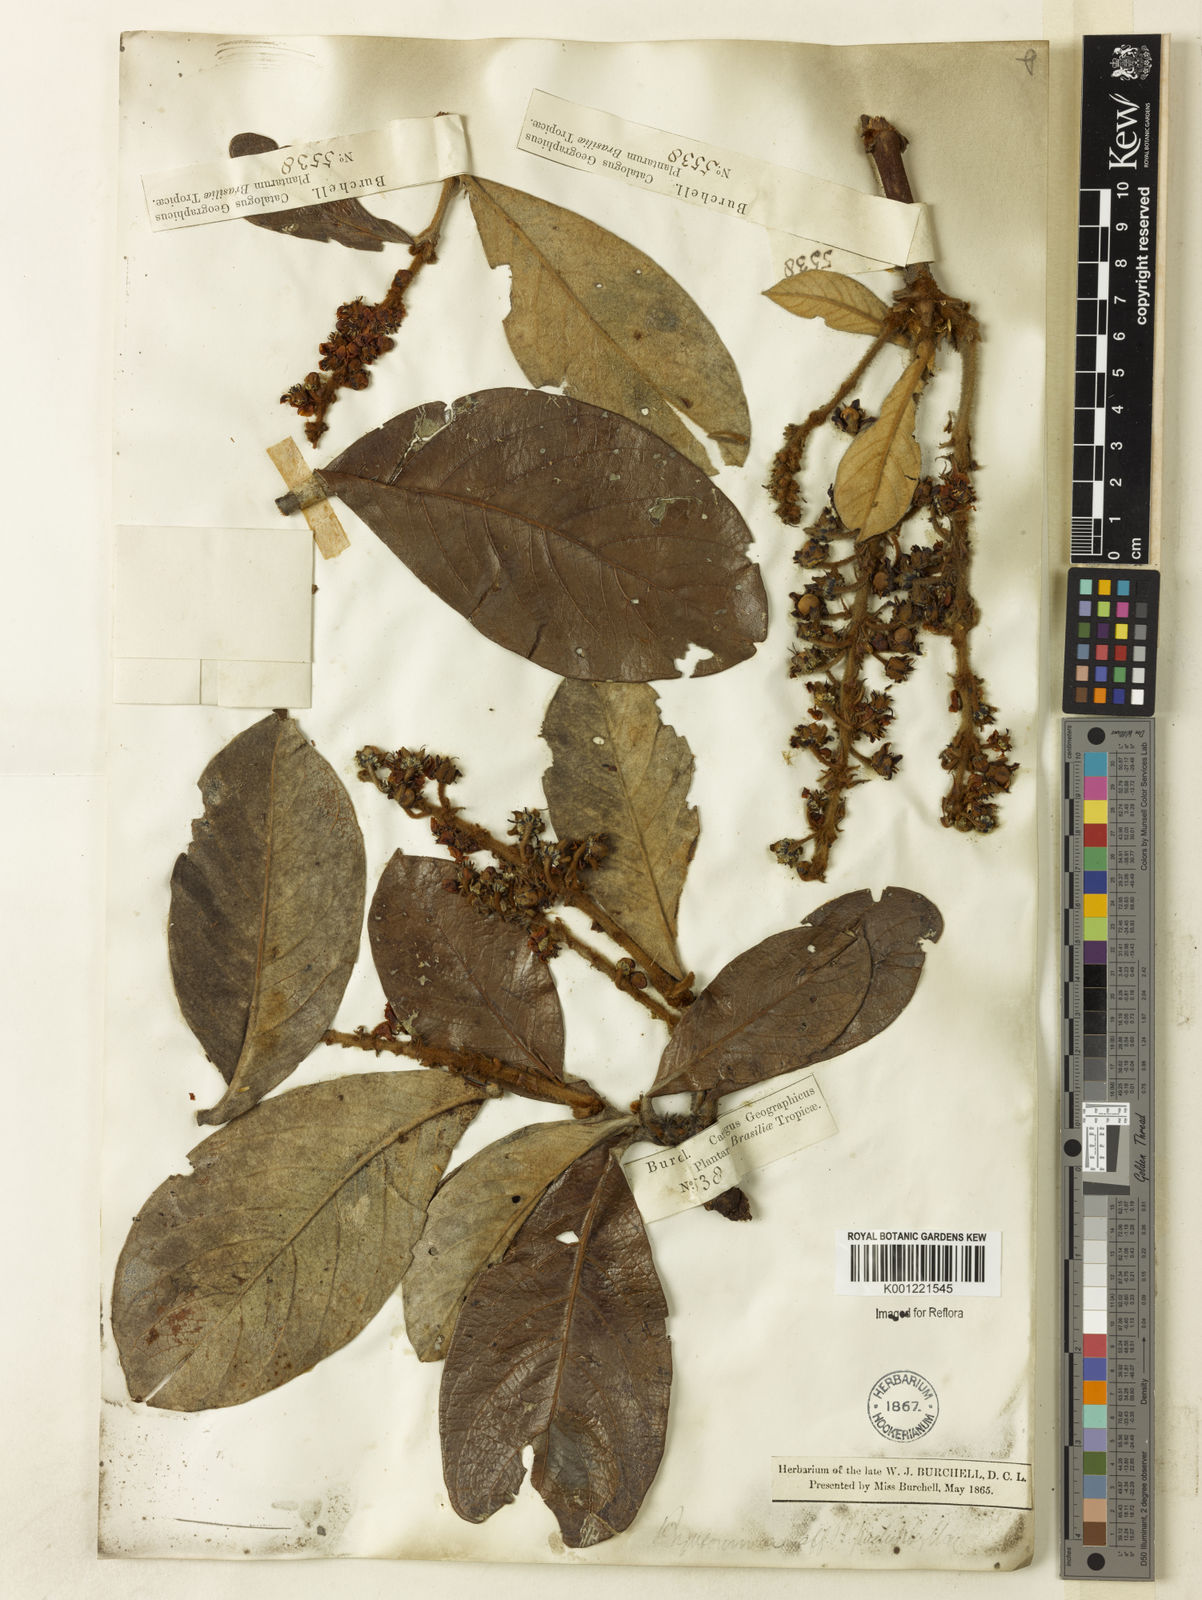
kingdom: Plantae
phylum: Tracheophyta
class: Magnoliopsida
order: Malpighiales
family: Malpighiaceae
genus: Byrsonima
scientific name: Byrsonima pachyphylla
